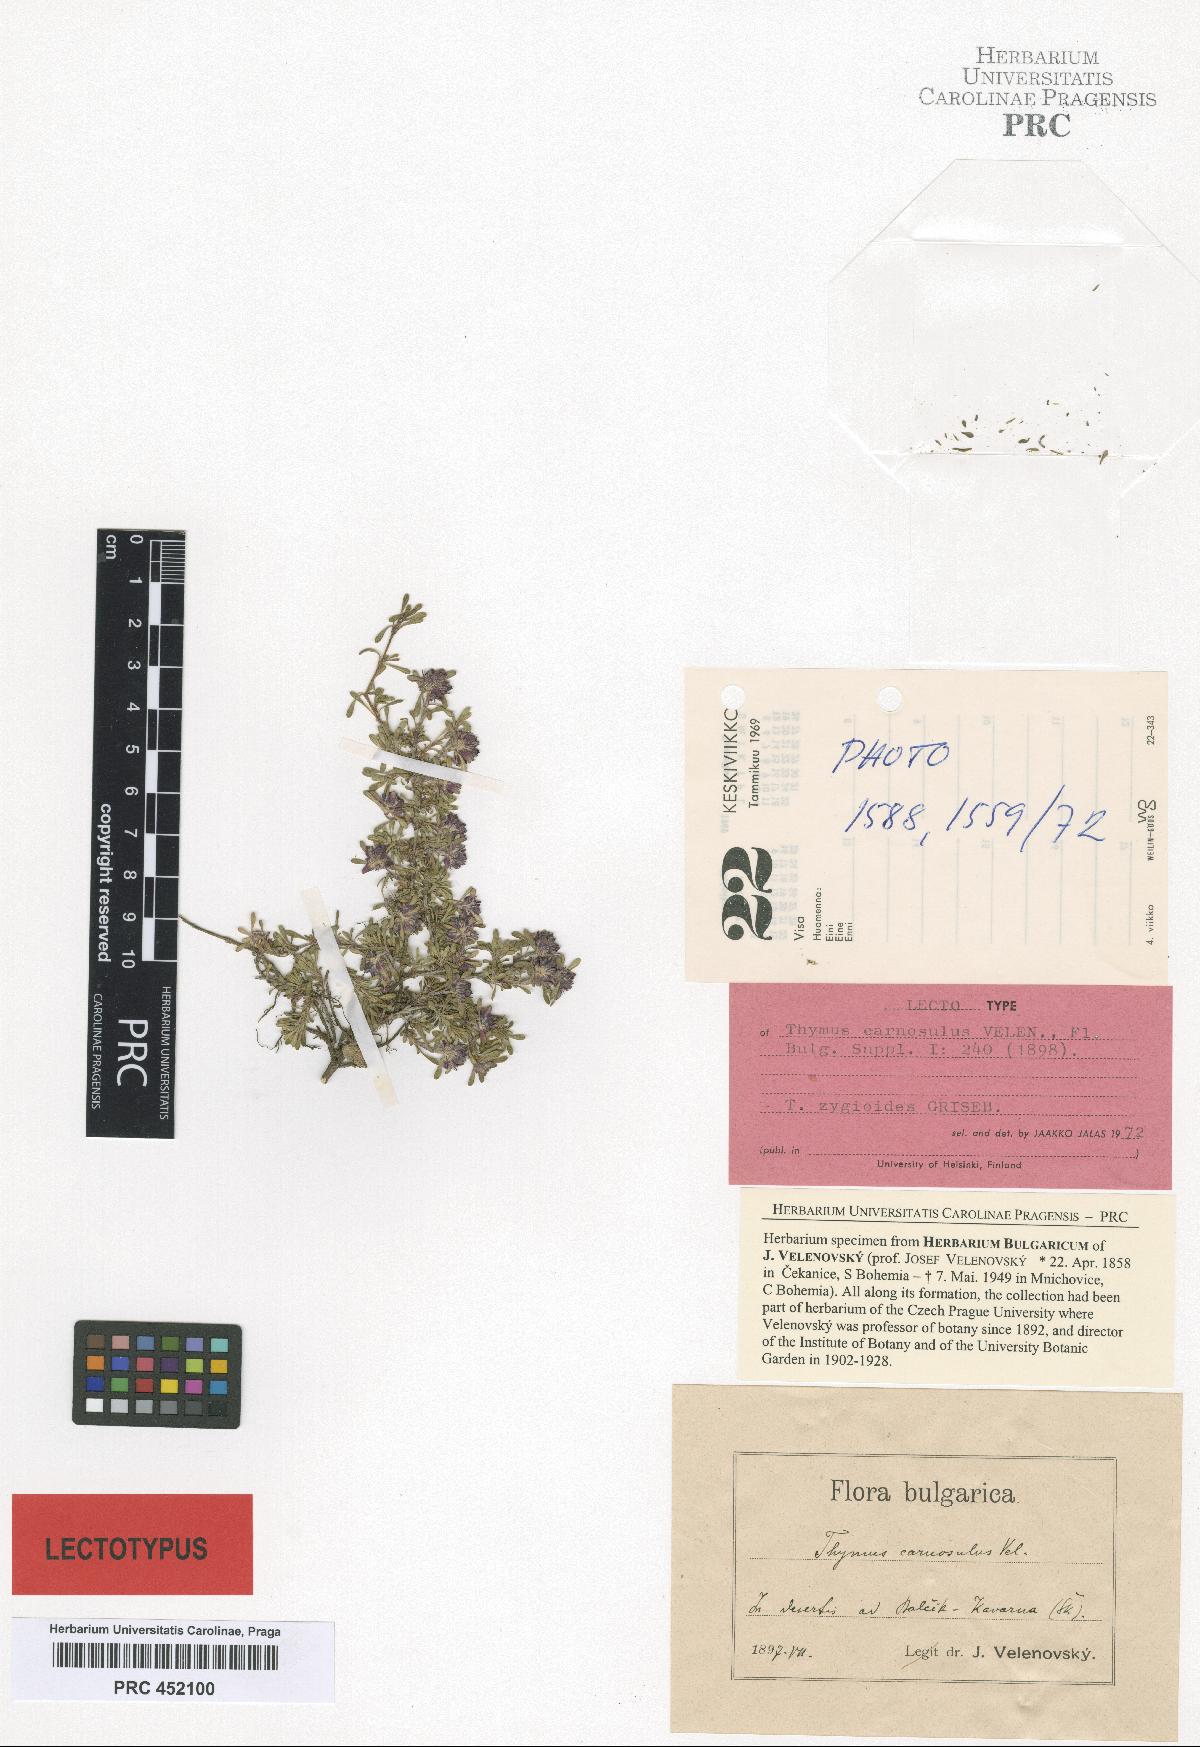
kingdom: Plantae
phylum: Tracheophyta
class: Magnoliopsida
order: Lamiales
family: Lamiaceae
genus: Thymus
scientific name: Thymus zygioides
